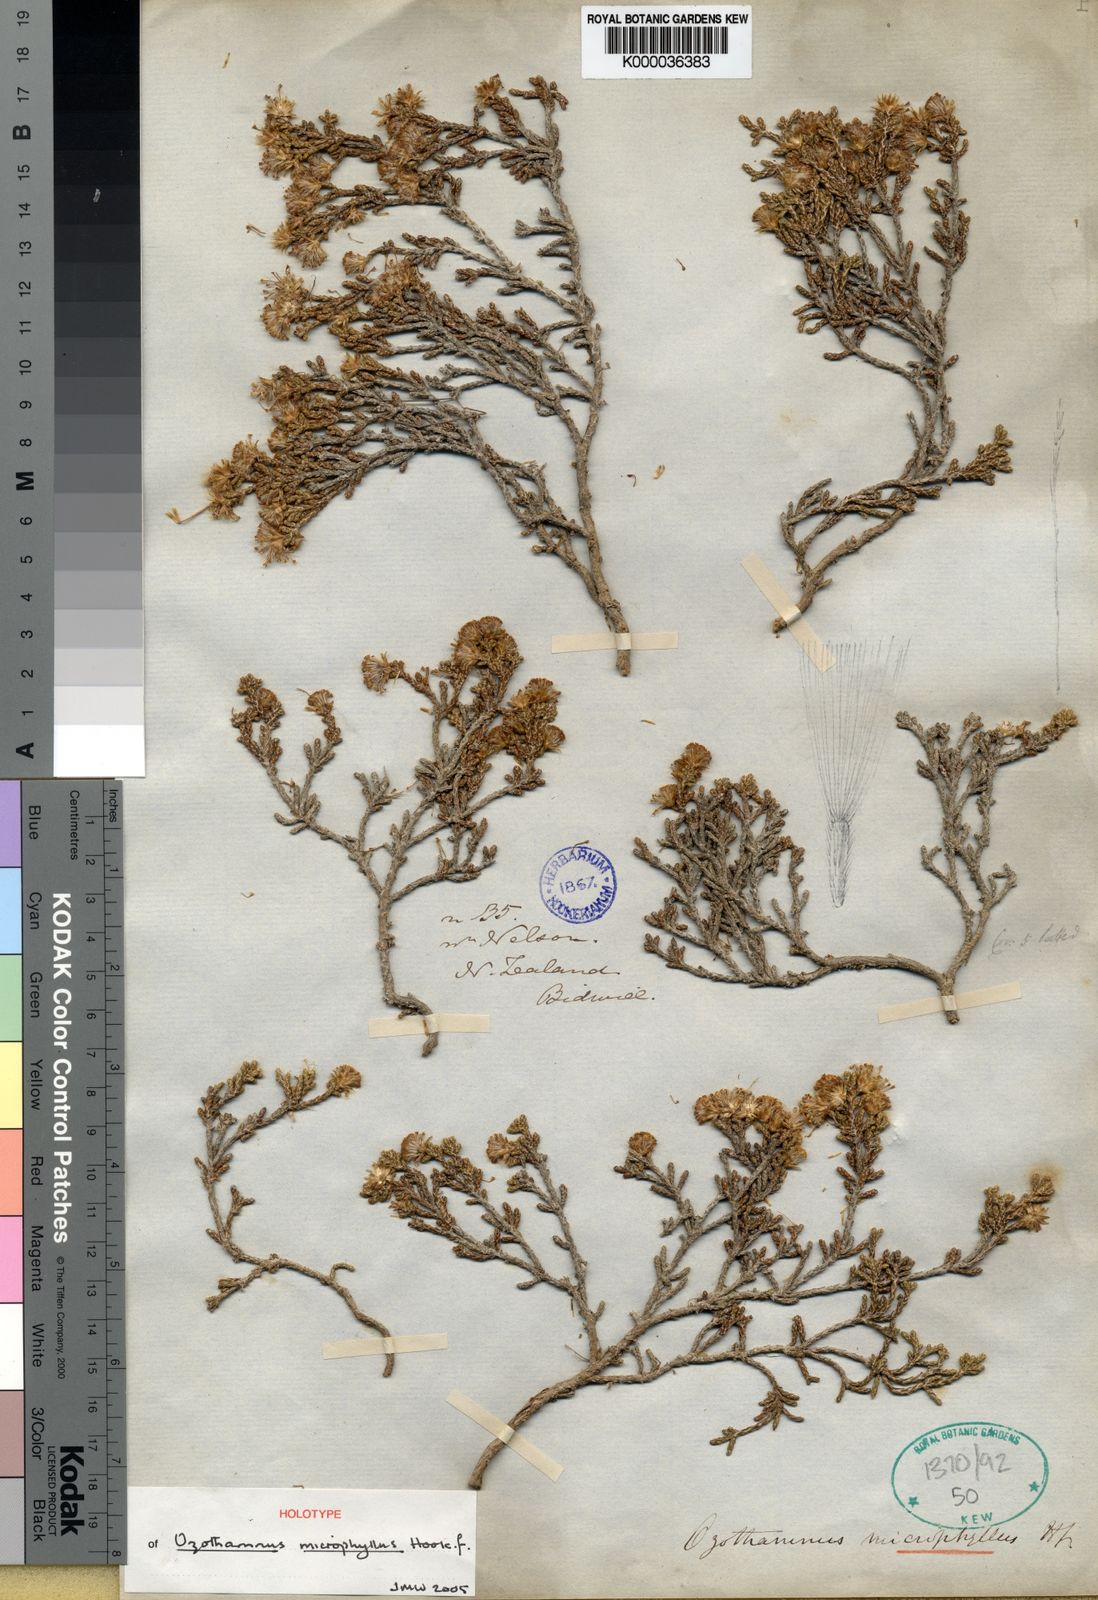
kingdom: Plantae
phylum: Tracheophyta
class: Magnoliopsida
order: Asterales
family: Asteraceae
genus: Ozothamnus
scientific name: Ozothamnus parvifolius
